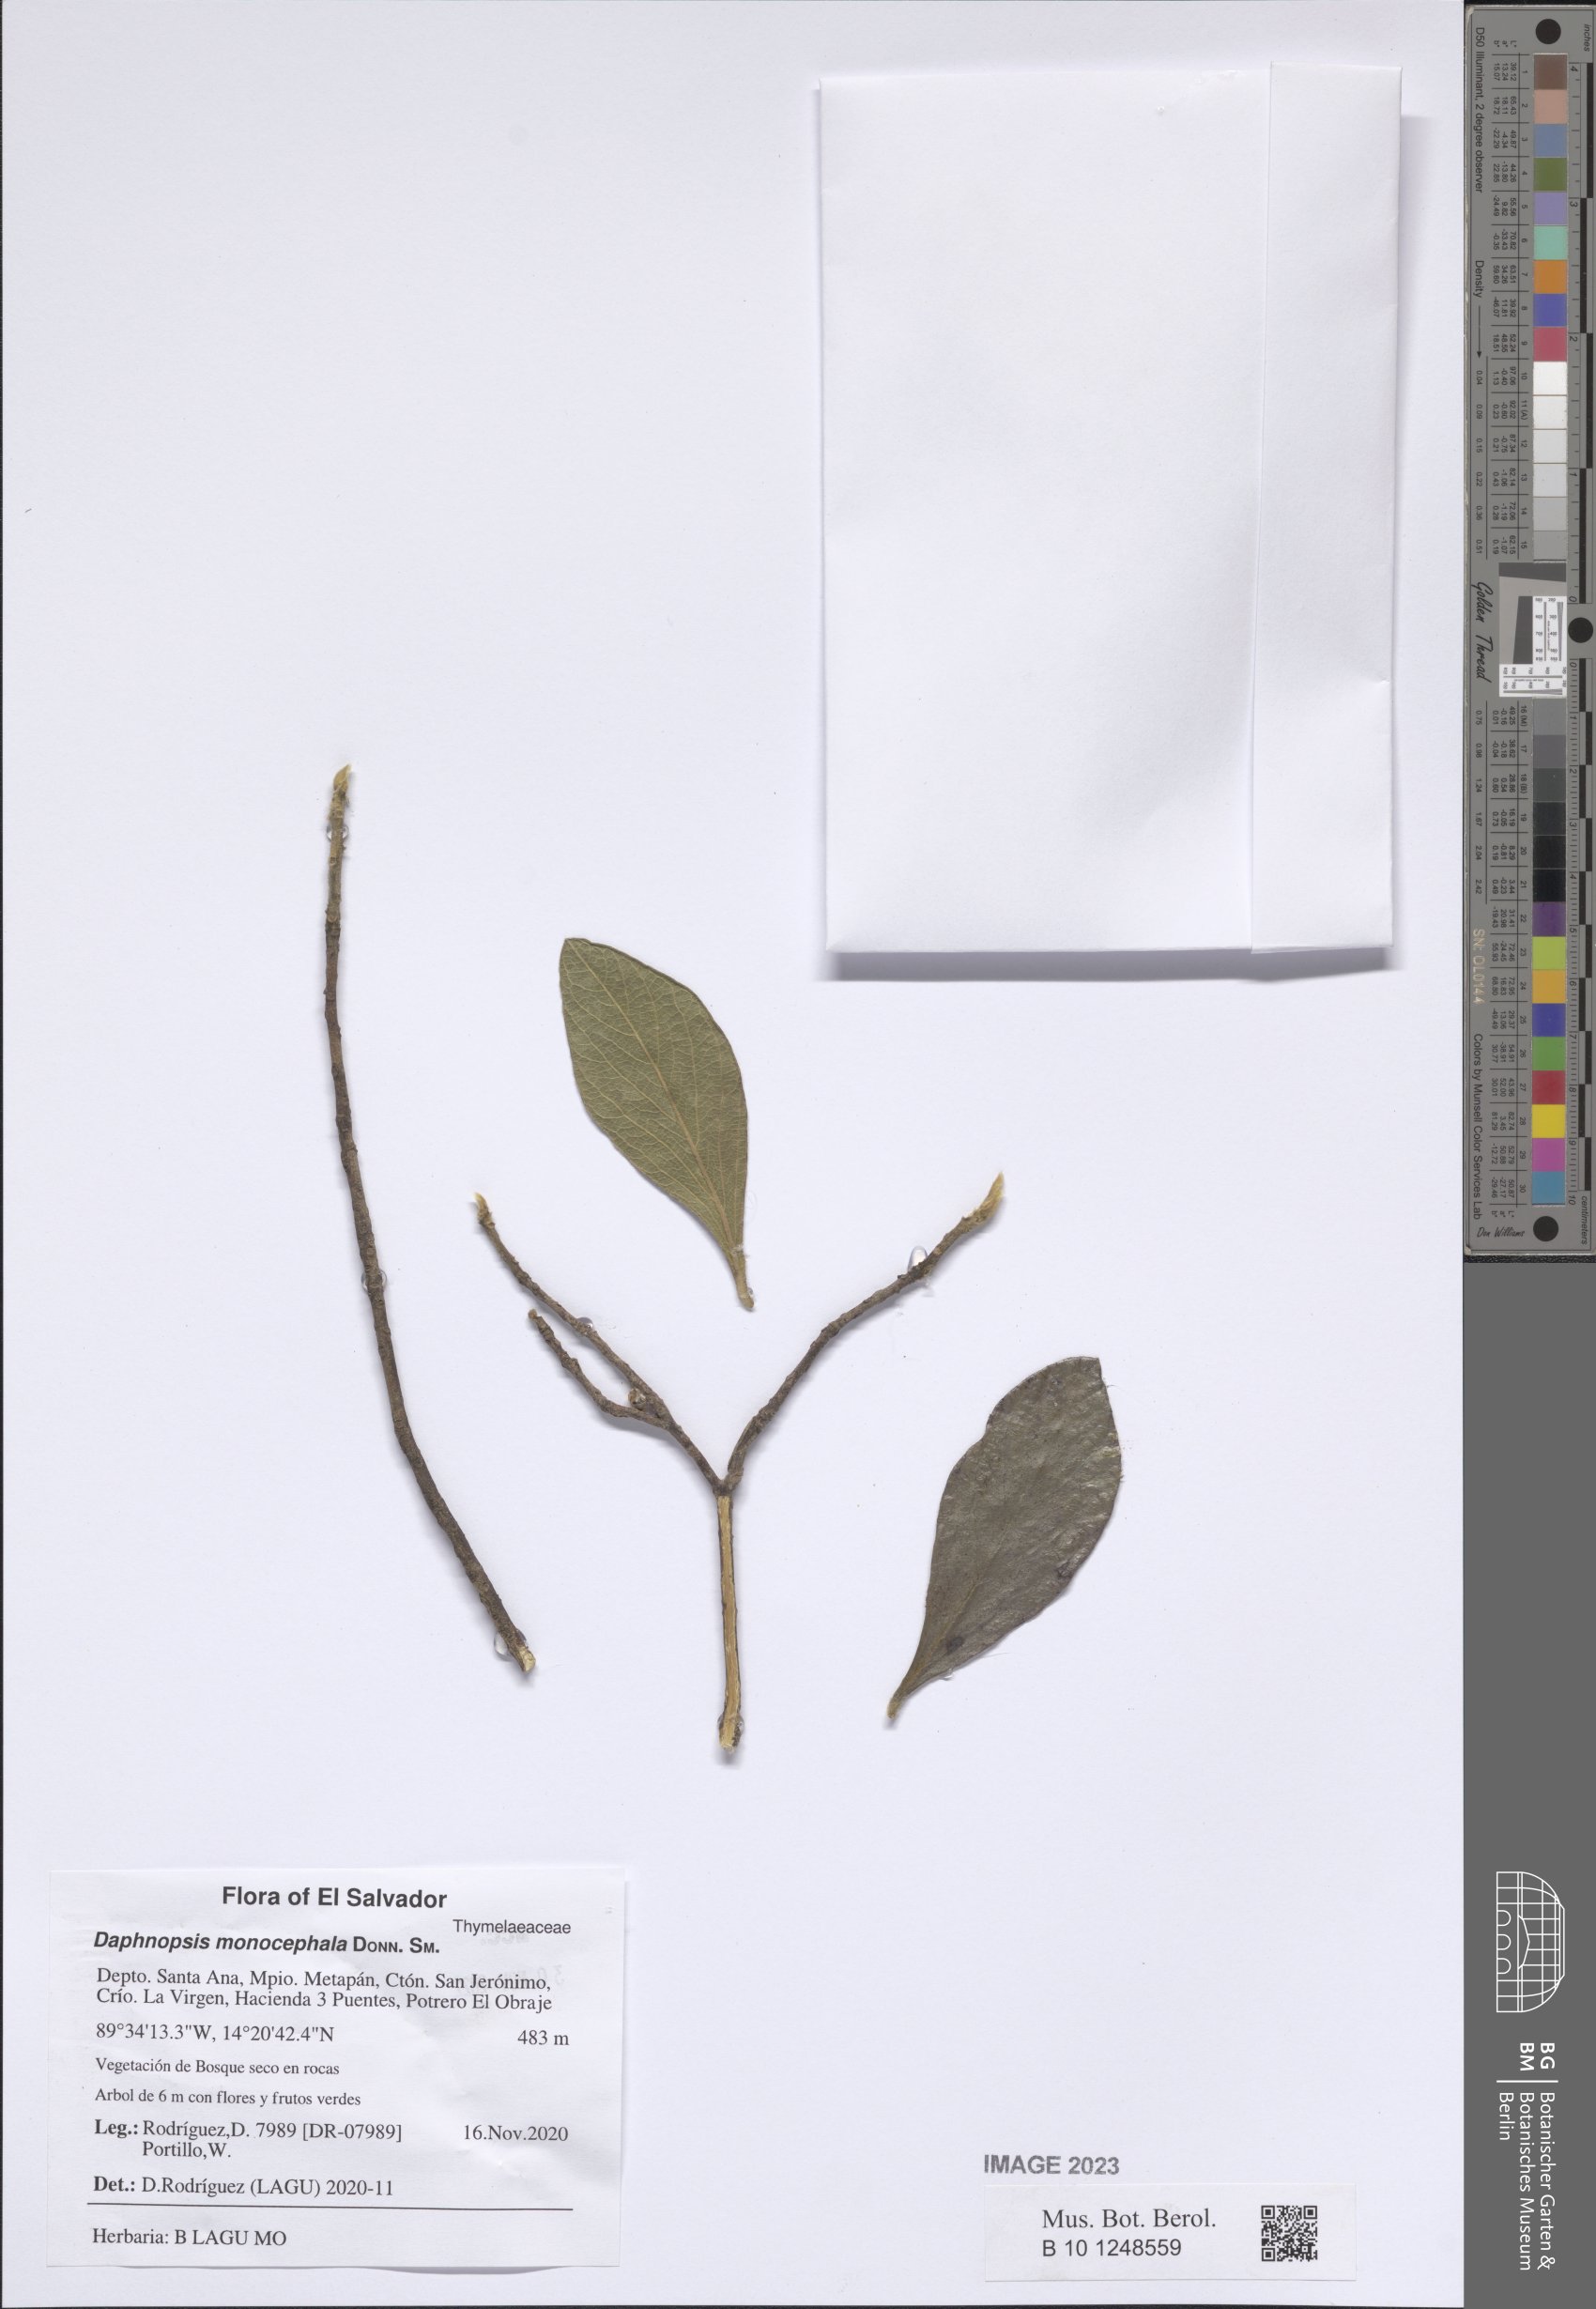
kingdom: Plantae
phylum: Tracheophyta
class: Magnoliopsida
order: Malvales
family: Thymelaeaceae
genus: Daphnopsis
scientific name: Daphnopsis monocephala
